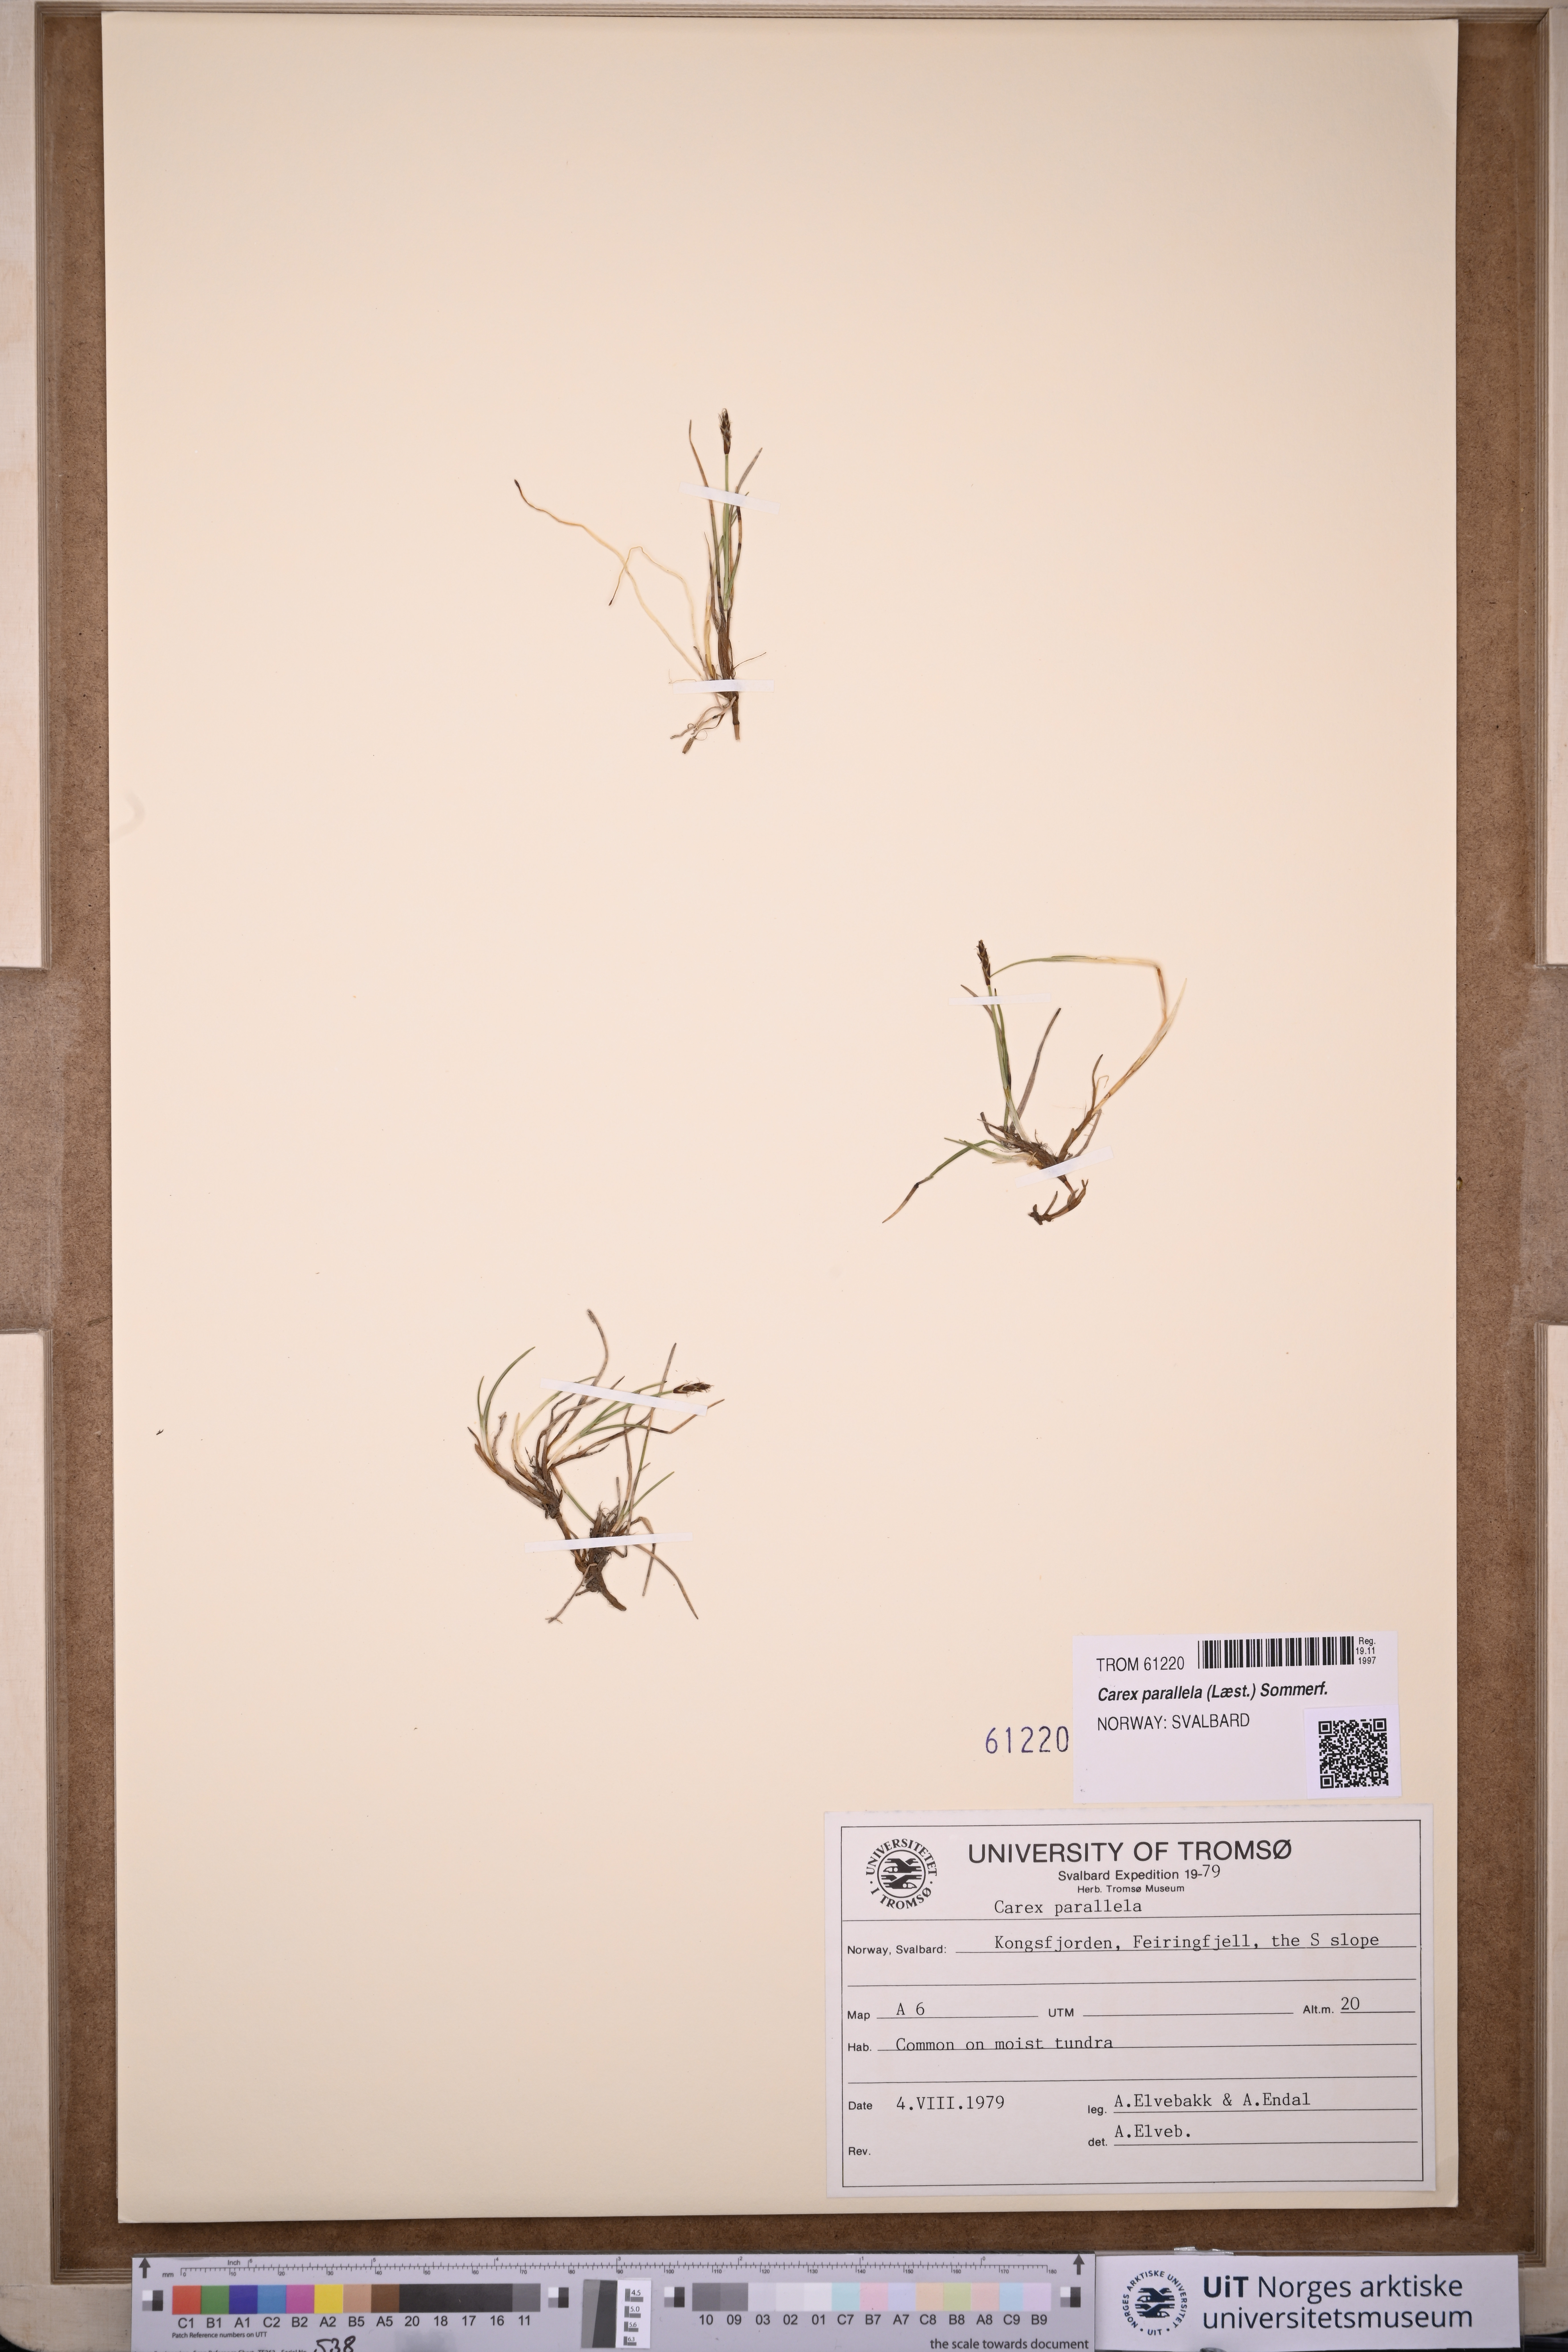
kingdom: Plantae
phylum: Tracheophyta
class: Liliopsida
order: Poales
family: Cyperaceae
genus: Carex
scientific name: Carex parallela
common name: Parallel sedge
